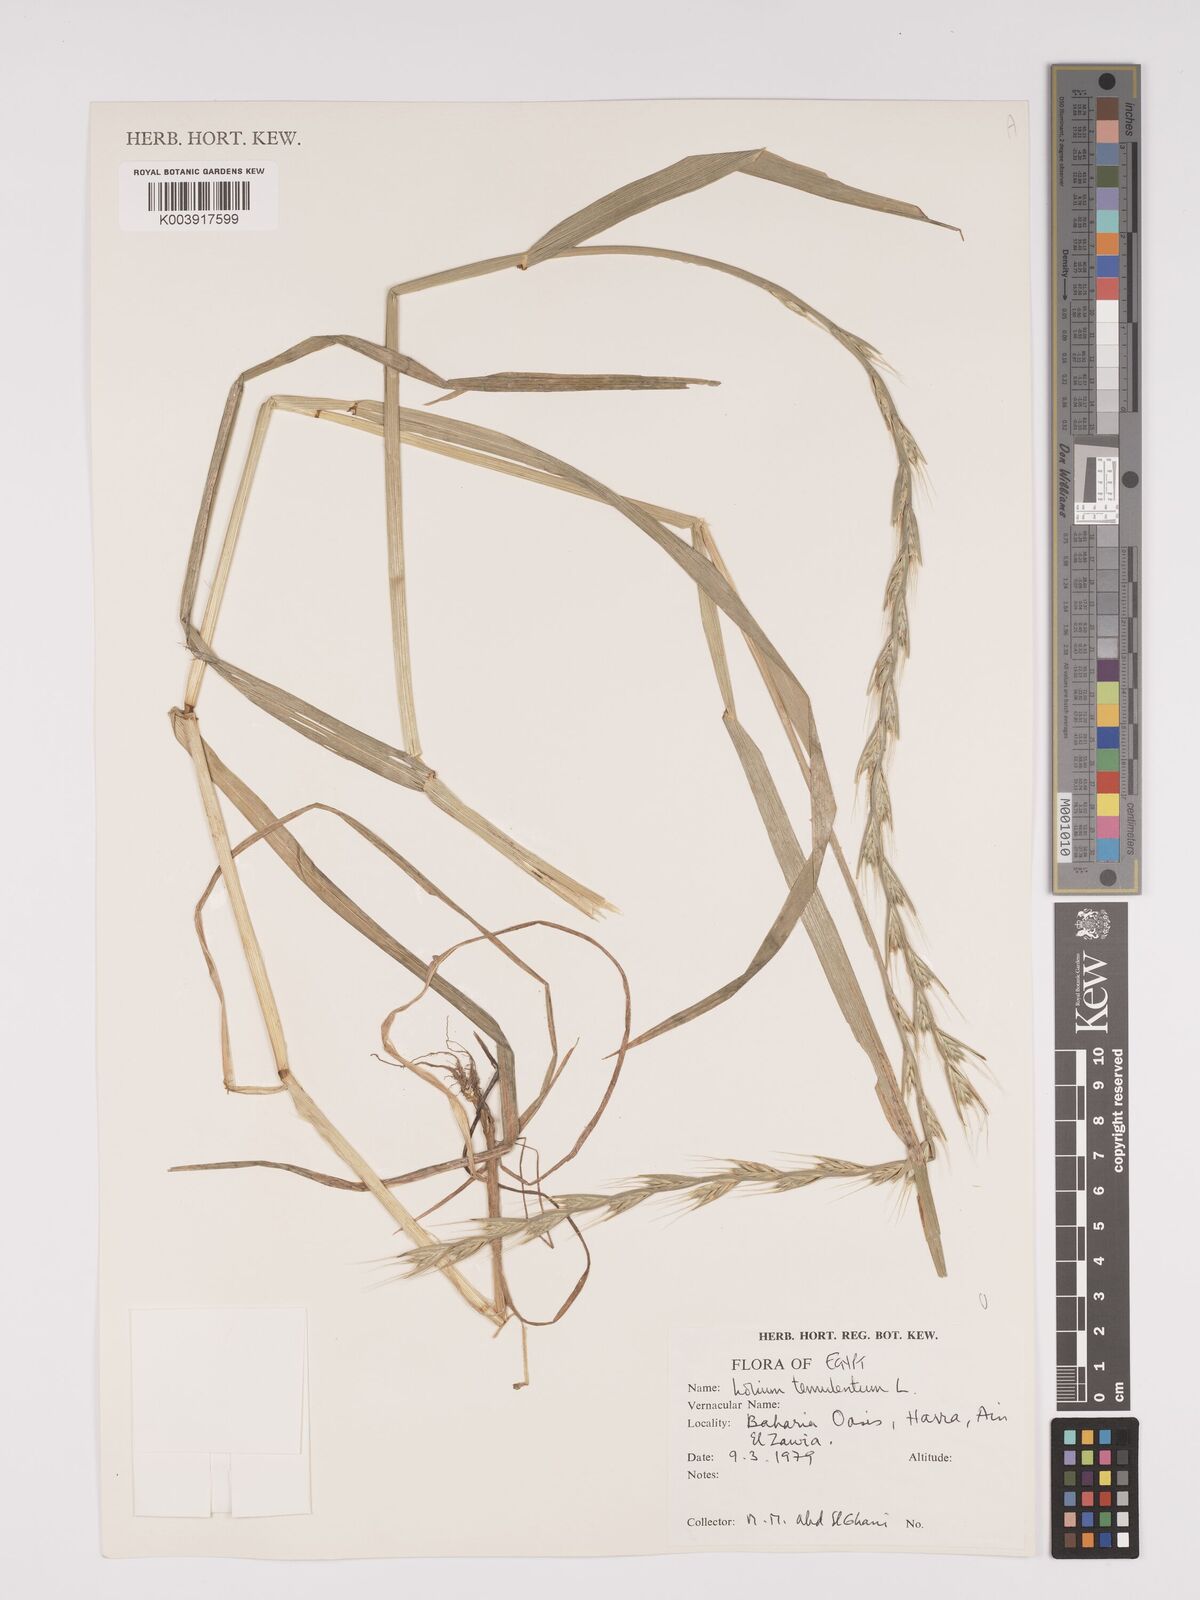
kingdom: Plantae
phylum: Tracheophyta
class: Liliopsida
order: Poales
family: Poaceae
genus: Lolium
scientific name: Lolium temulentum
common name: Darnel
